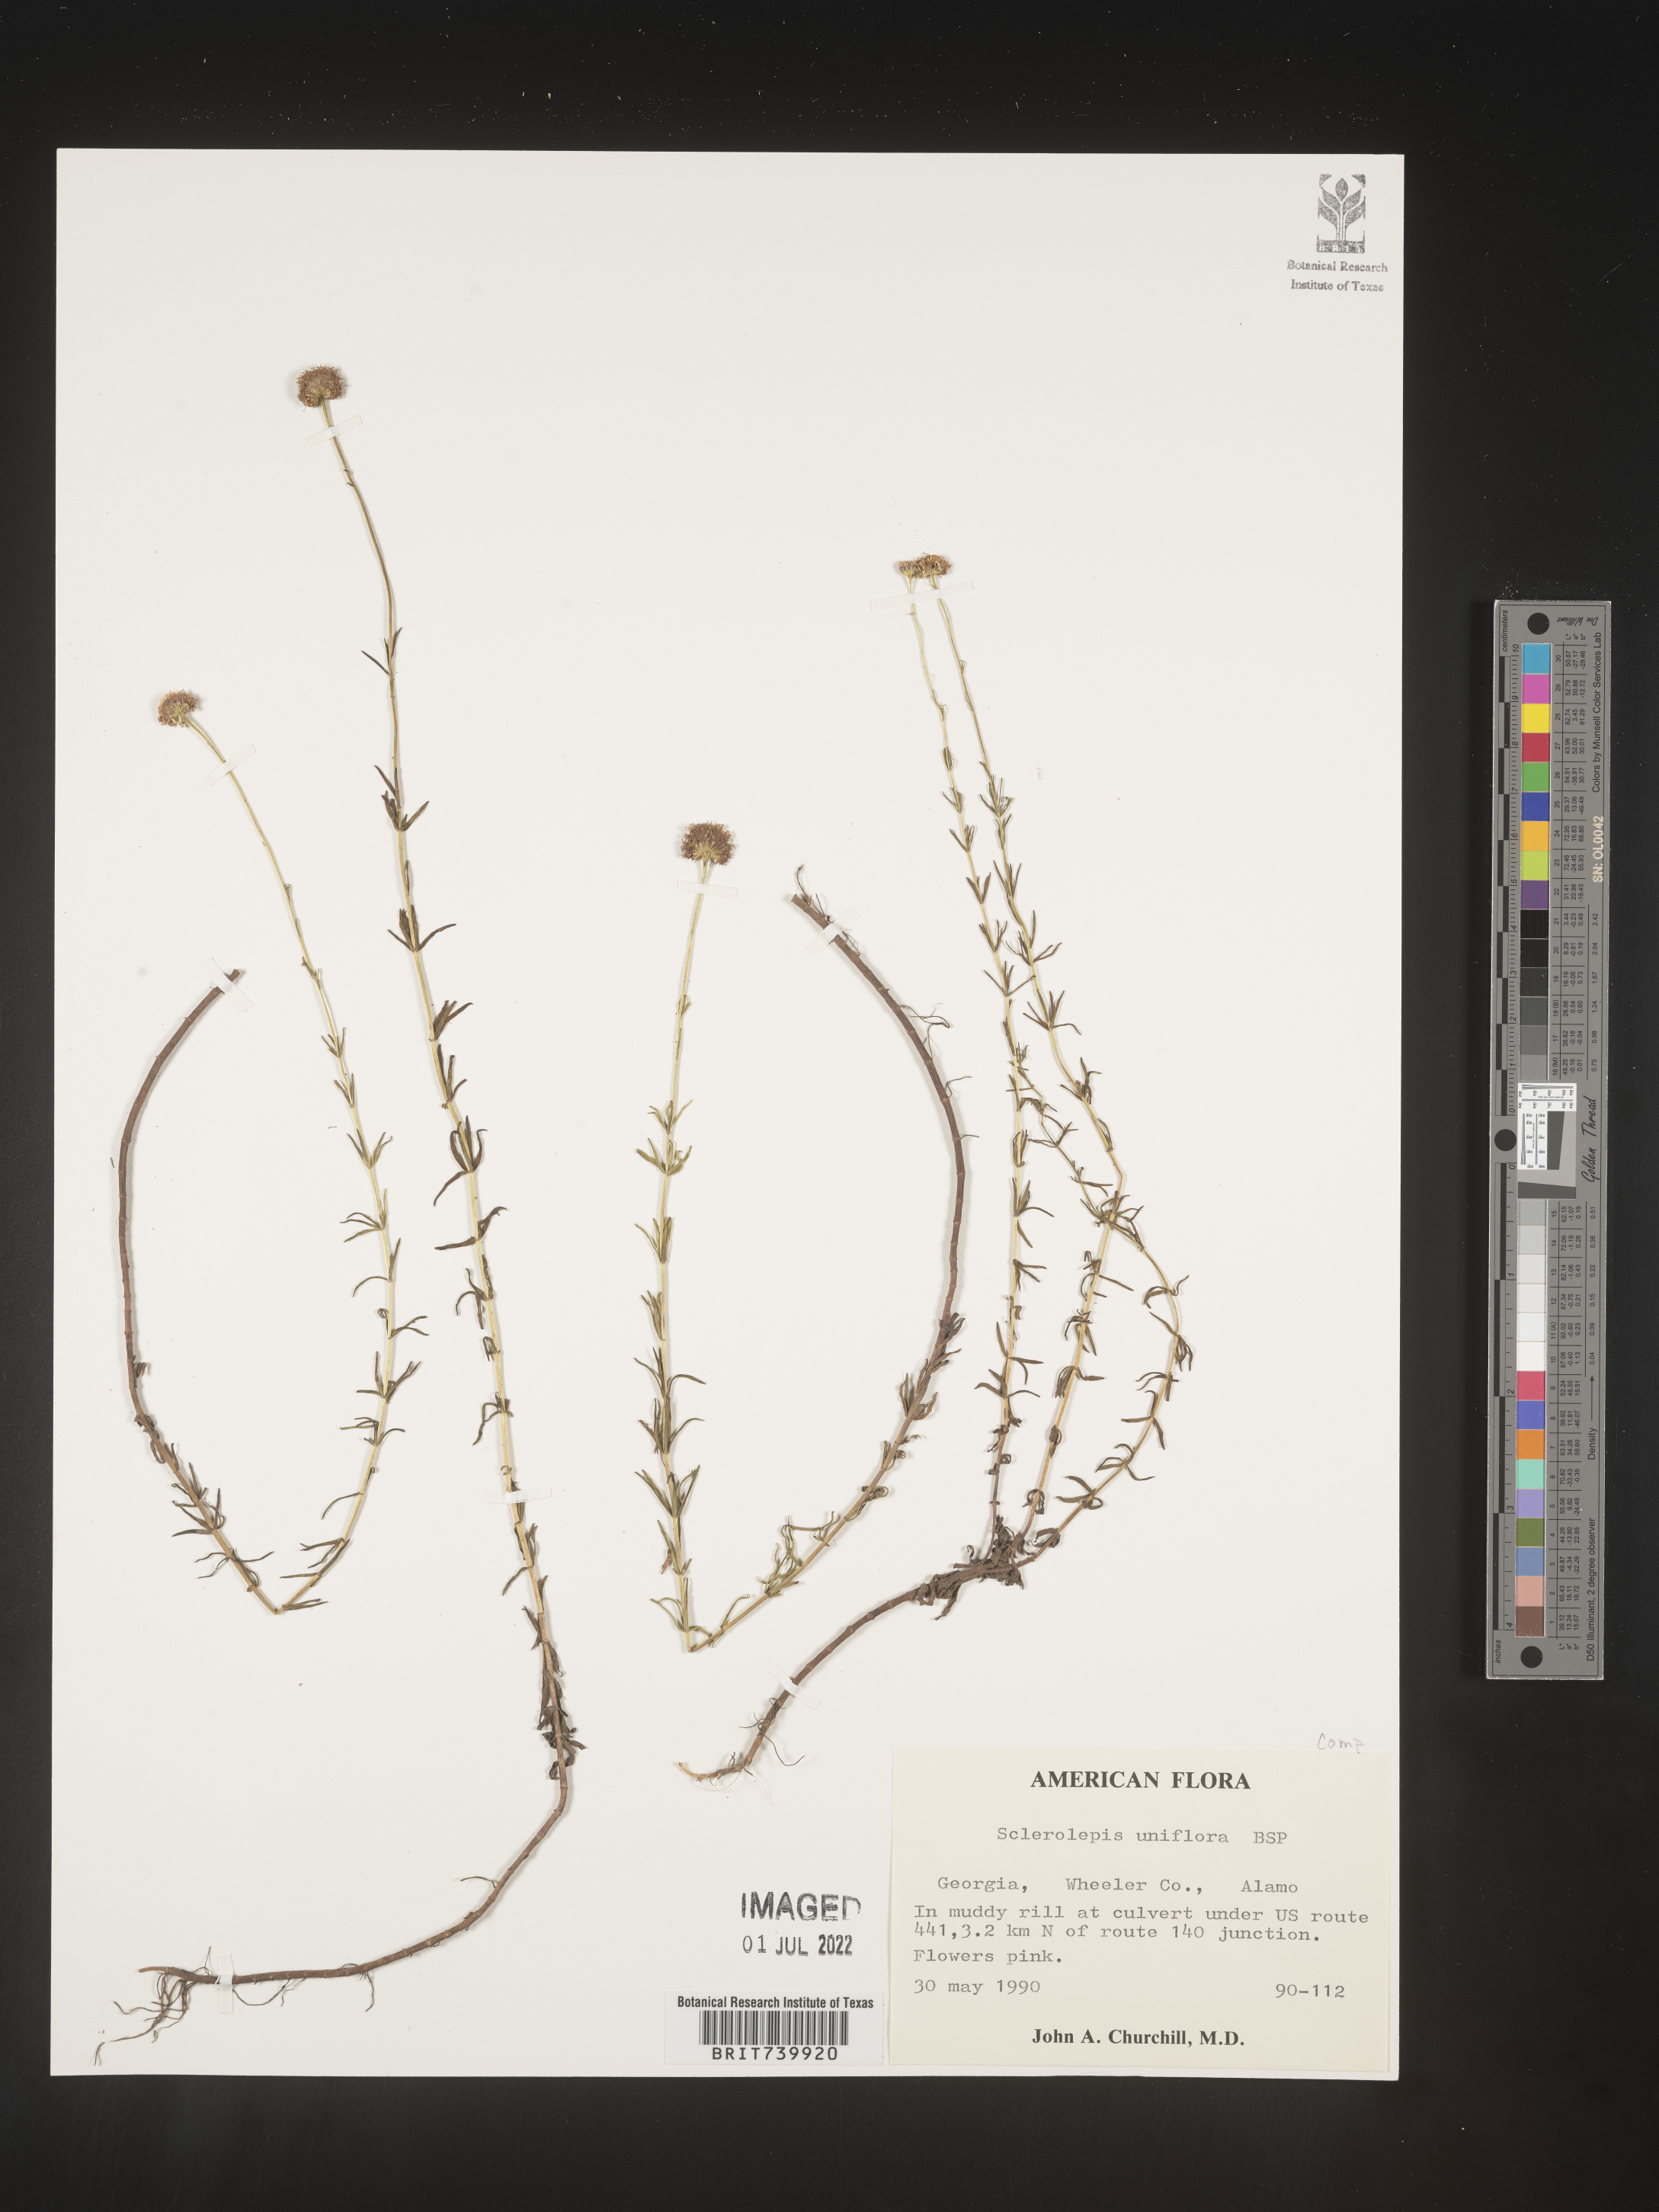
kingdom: Plantae
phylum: Tracheophyta
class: Magnoliopsida
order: Asterales
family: Asteraceae
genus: Sclerolepis
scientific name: Sclerolepis
